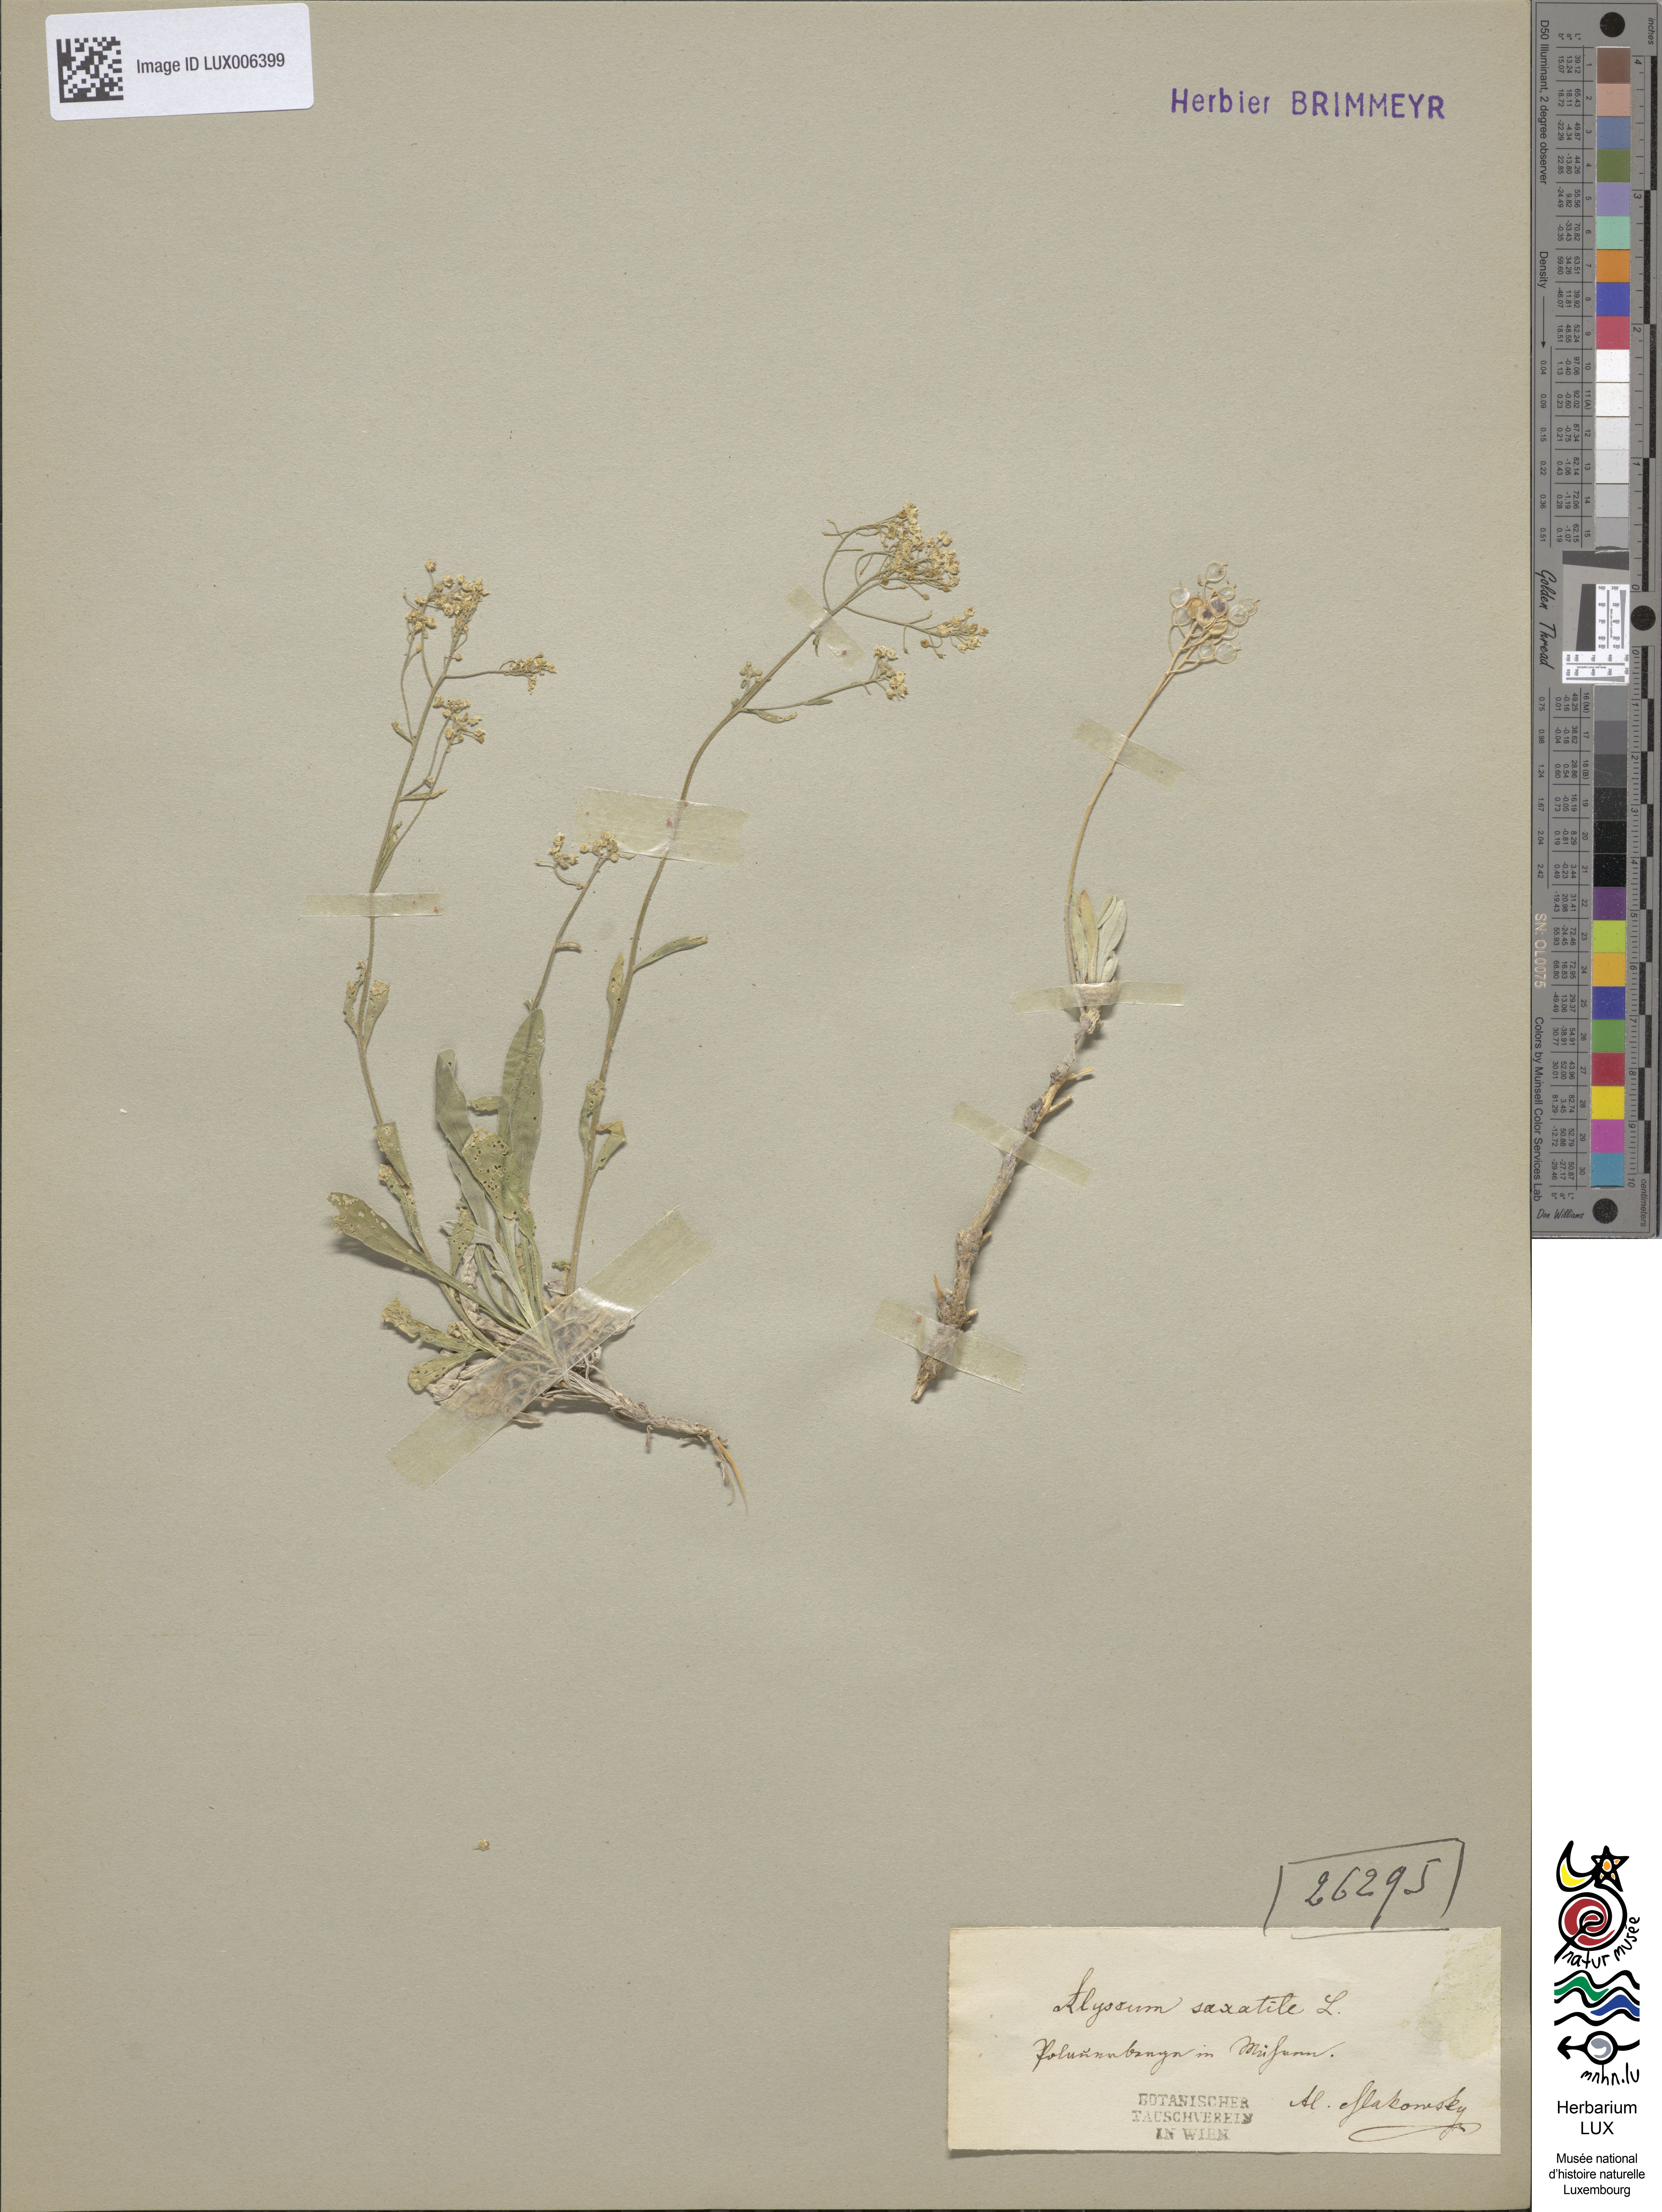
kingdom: Plantae
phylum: Tracheophyta
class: Magnoliopsida
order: Brassicales
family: Brassicaceae
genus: Aurinia
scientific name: Aurinia saxatilis
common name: Golden-tuft alyssum
